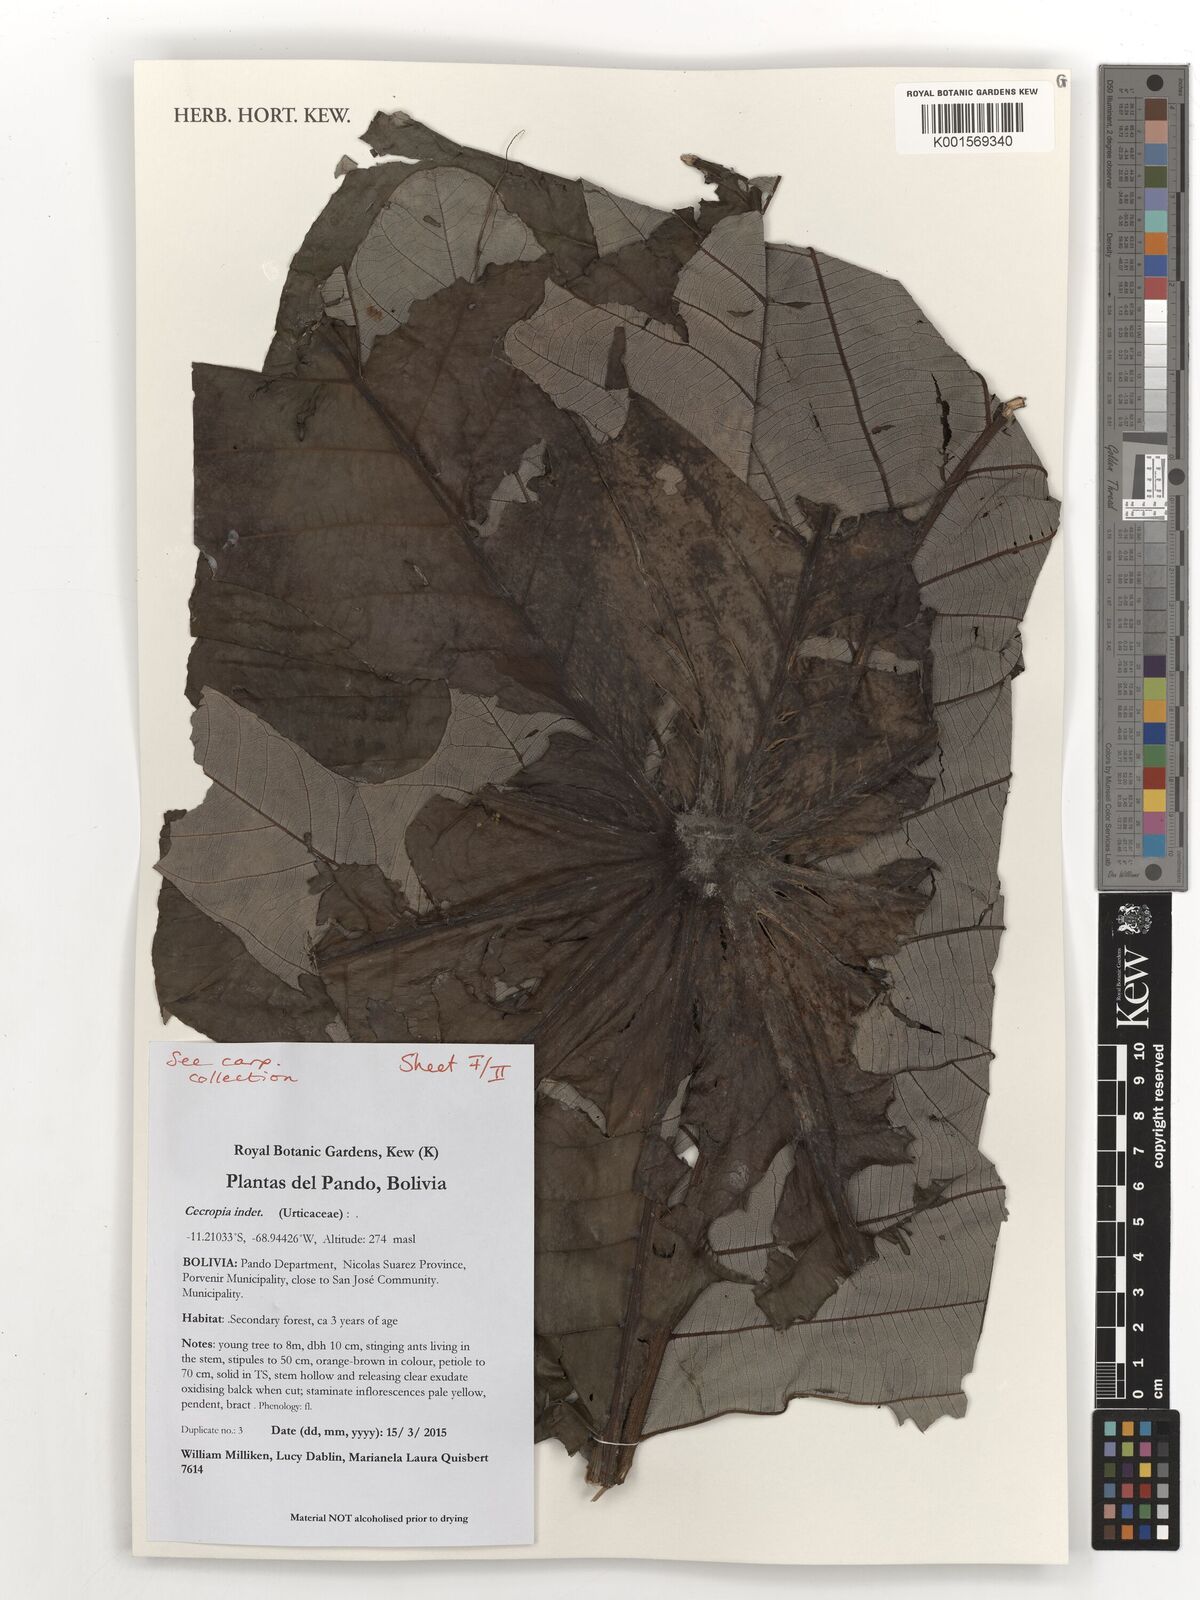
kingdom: Plantae
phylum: Tracheophyta
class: Magnoliopsida
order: Rosales
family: Urticaceae
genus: Cecropia
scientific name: Cecropia
